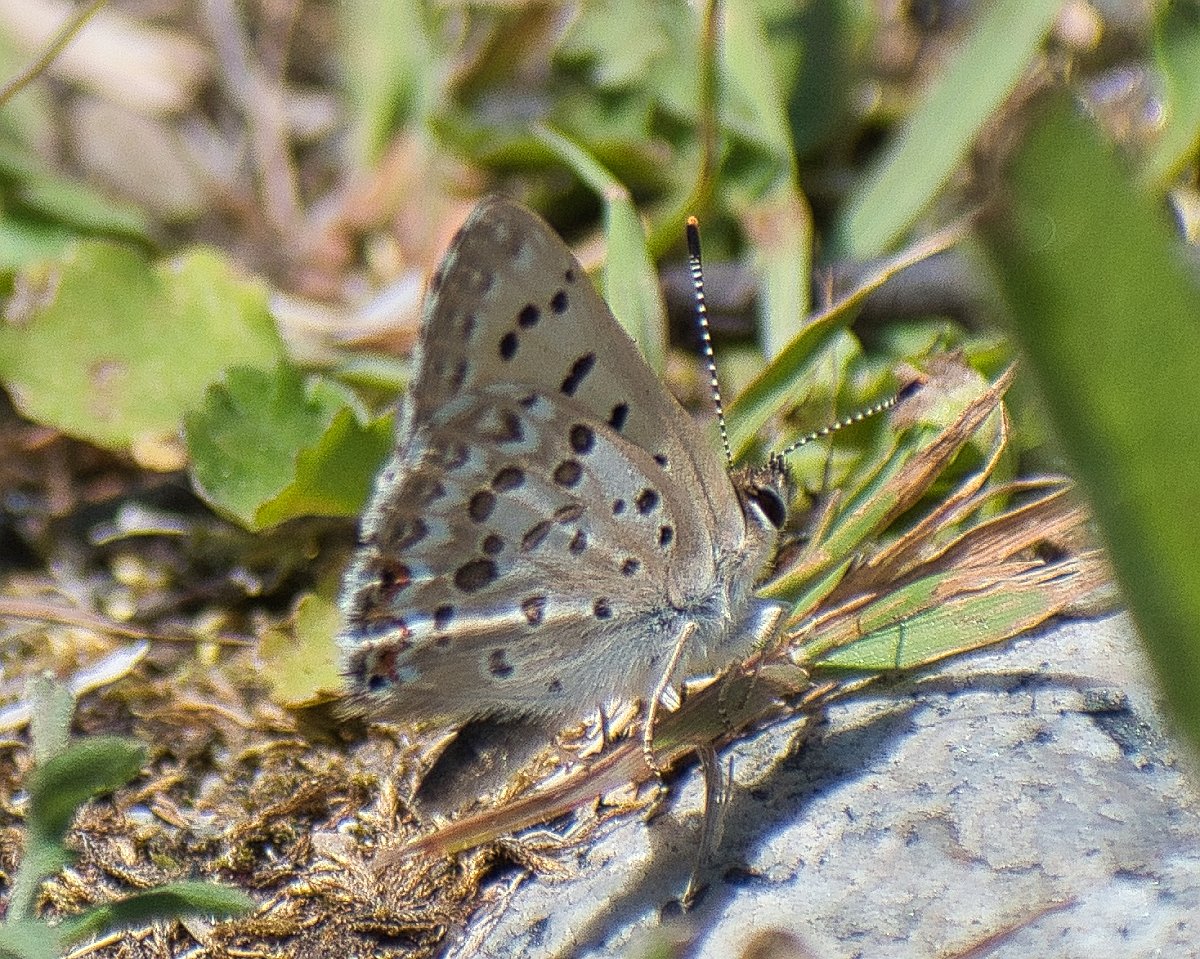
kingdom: Animalia
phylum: Arthropoda
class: Insecta
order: Lepidoptera
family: Lycaenidae
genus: Lycaena
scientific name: Lycaena editha
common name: Edith's Copper
